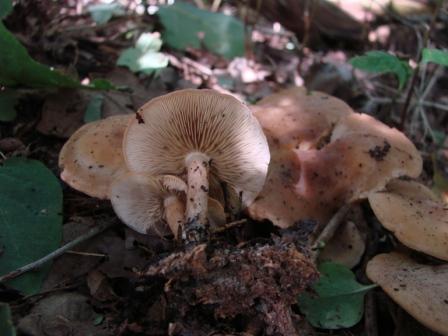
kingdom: Fungi
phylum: Basidiomycota
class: Agaricomycetes
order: Agaricales
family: Lyophyllaceae
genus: Calocybe
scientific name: Calocybe hebelomoides
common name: lerbrun fagerhat
